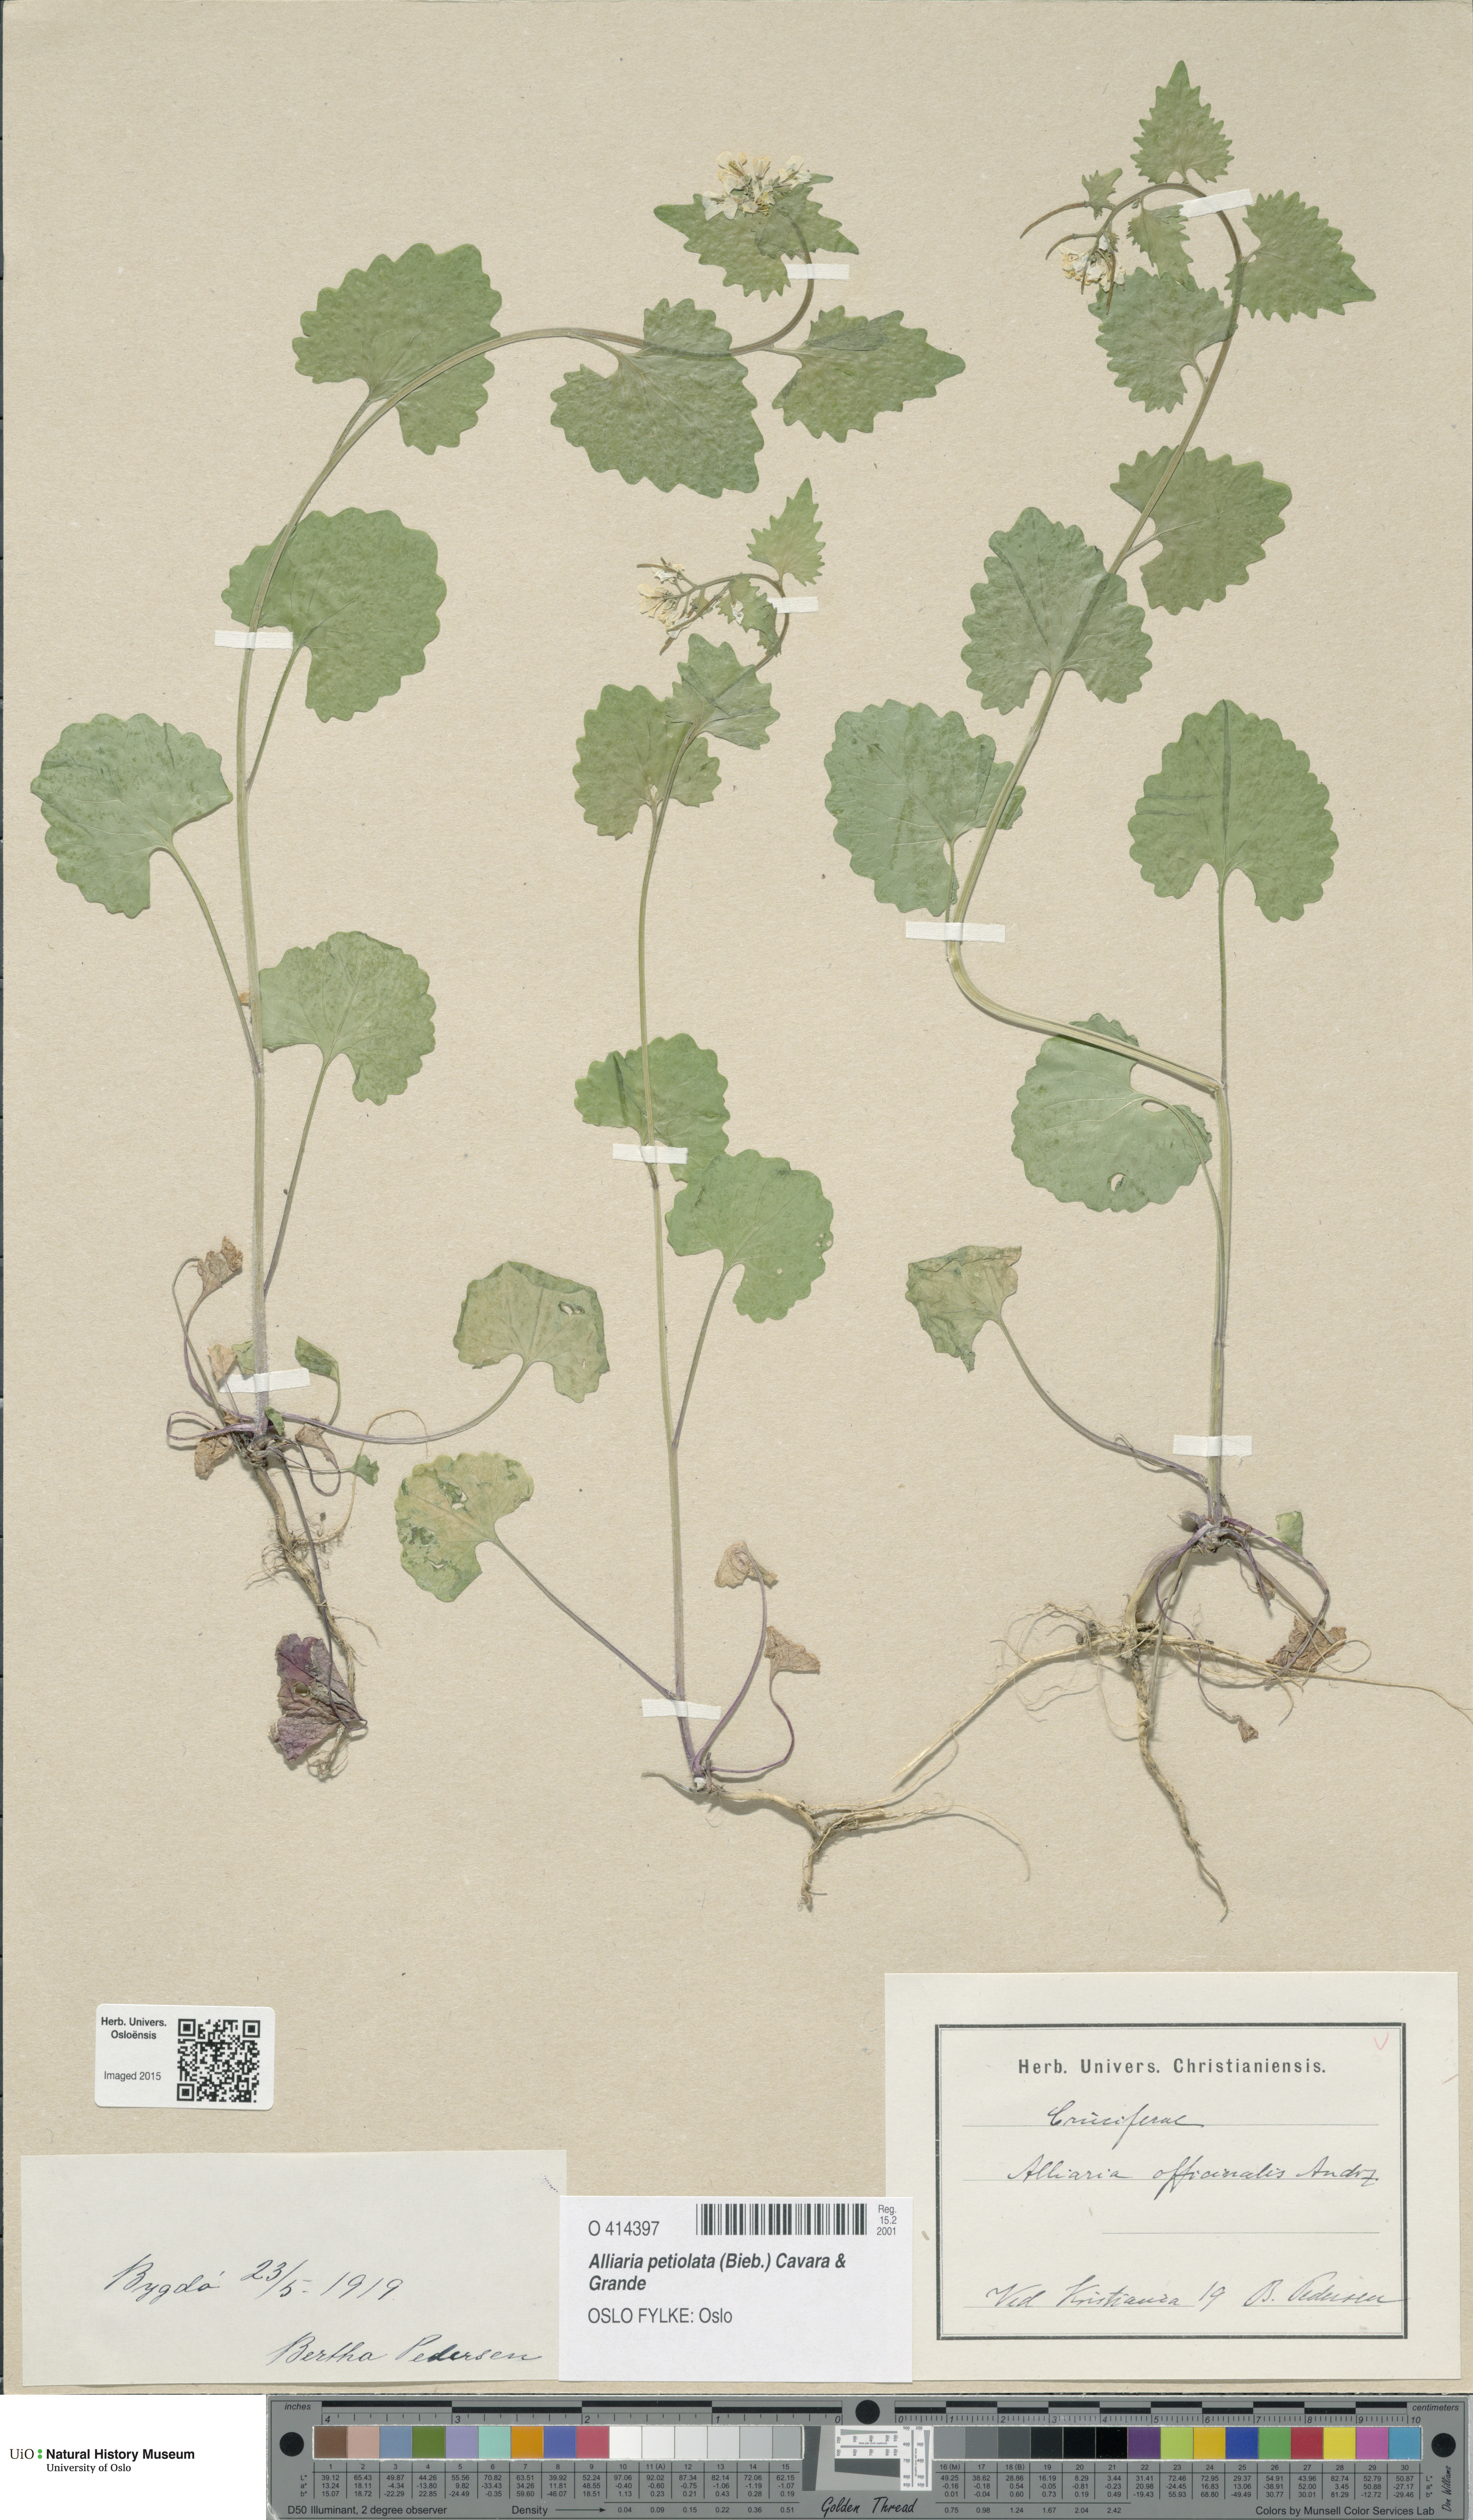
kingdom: Plantae
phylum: Tracheophyta
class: Magnoliopsida
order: Brassicales
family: Brassicaceae
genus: Alliaria
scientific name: Alliaria petiolata
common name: Garlic mustard
